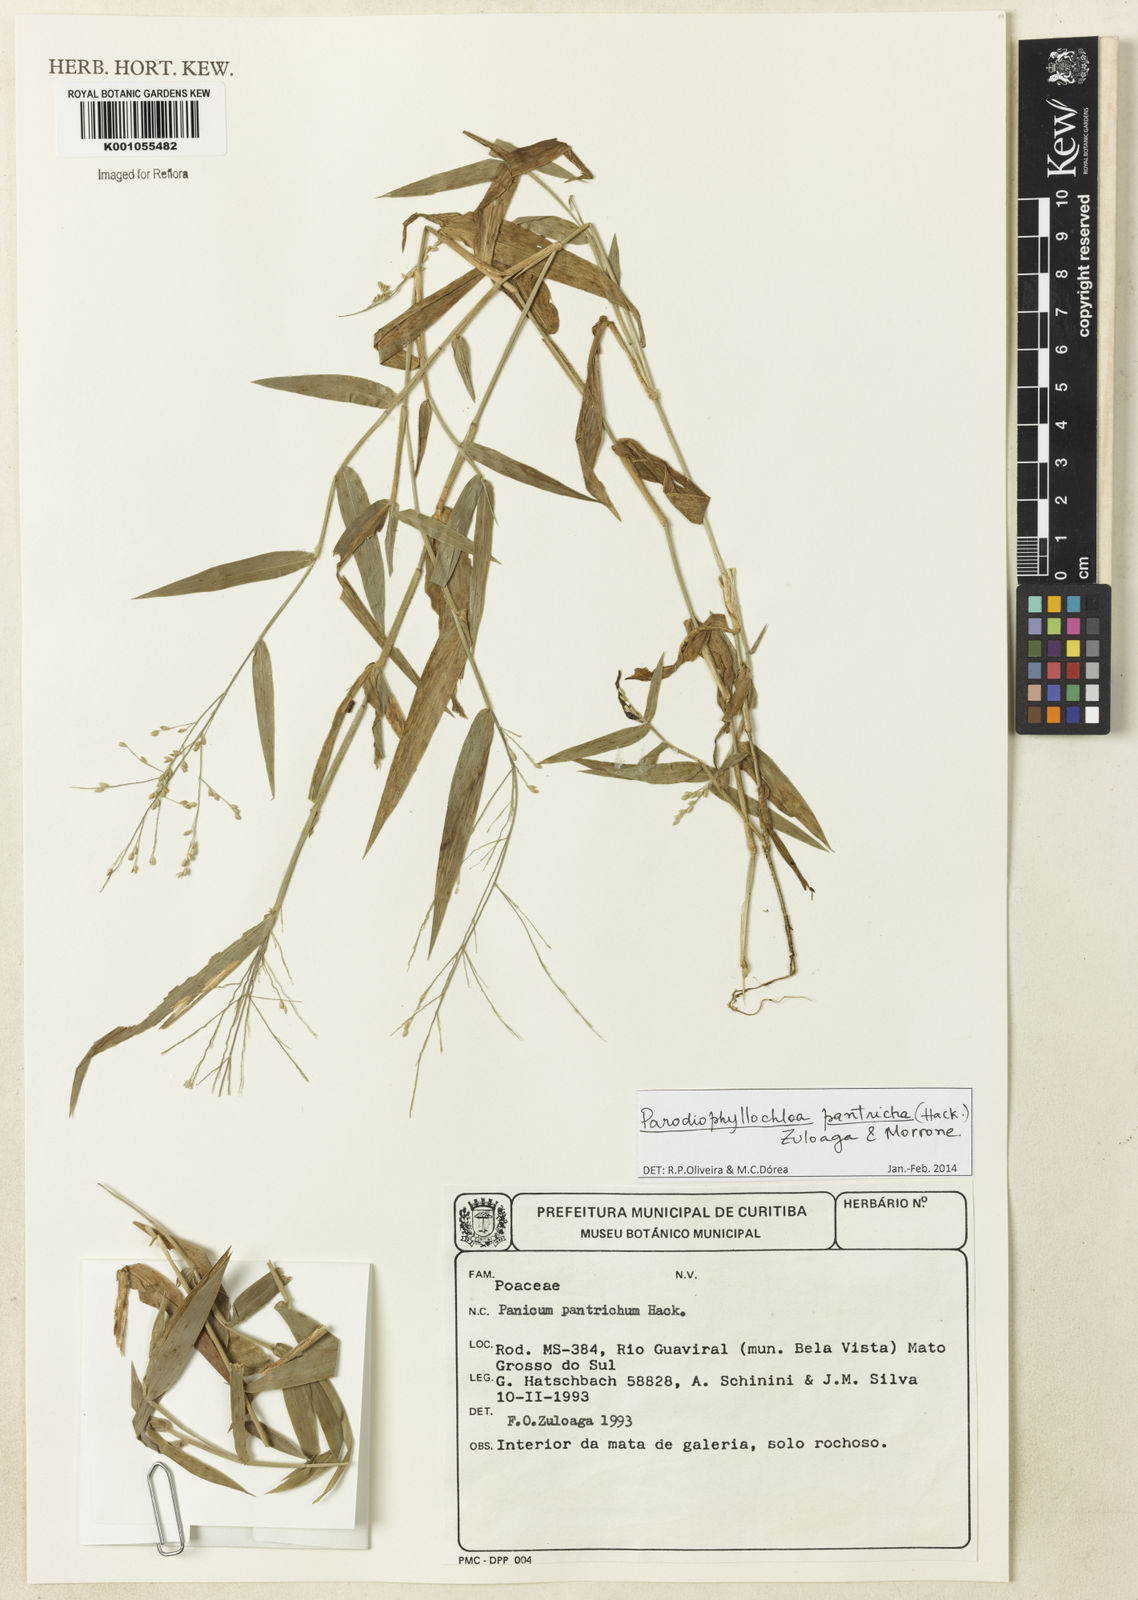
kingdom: Plantae
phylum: Tracheophyta
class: Liliopsida
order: Poales
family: Poaceae
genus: Parodiophyllochloa
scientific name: Parodiophyllochloa pantricha
